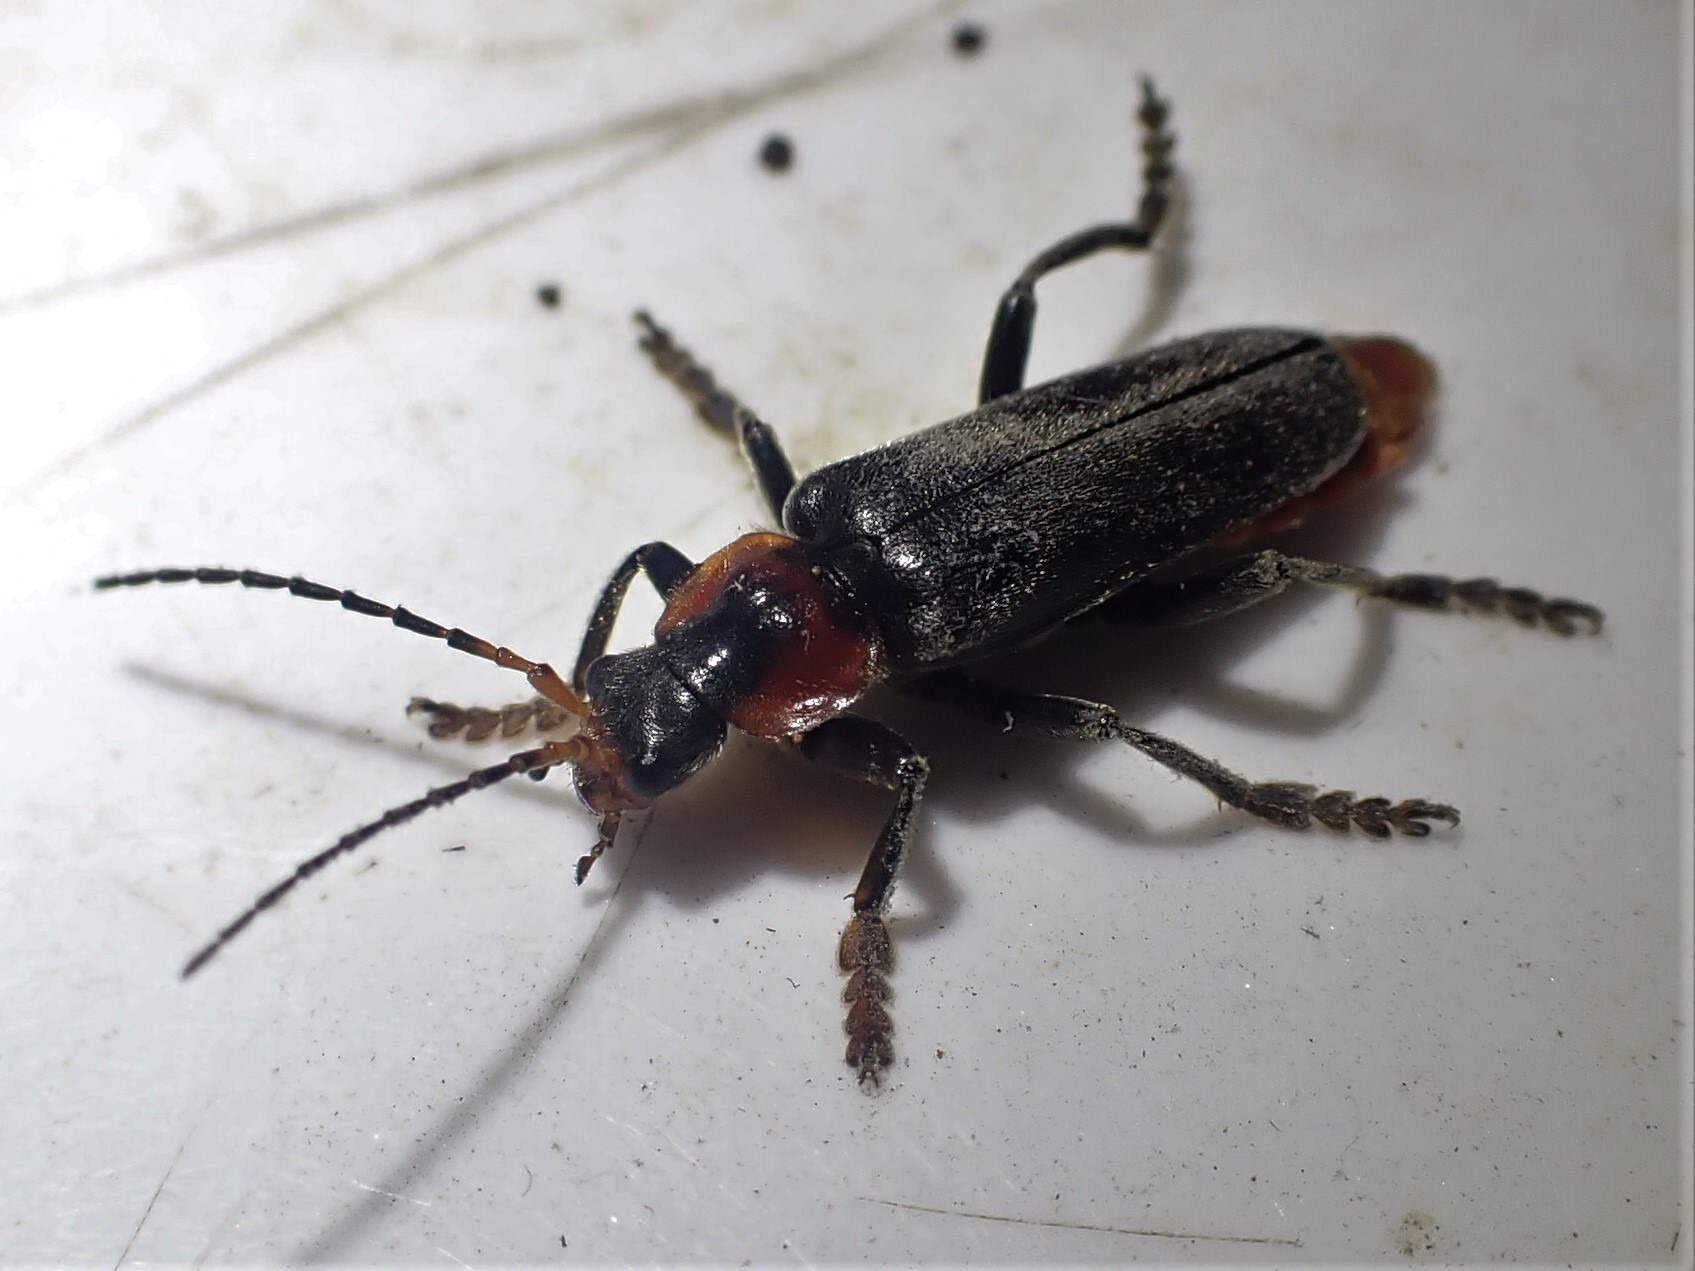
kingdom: Animalia
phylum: Arthropoda
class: Insecta
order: Coleoptera
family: Cantharidae
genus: Cantharis
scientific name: Cantharis fusca
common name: Stor blødvinge
